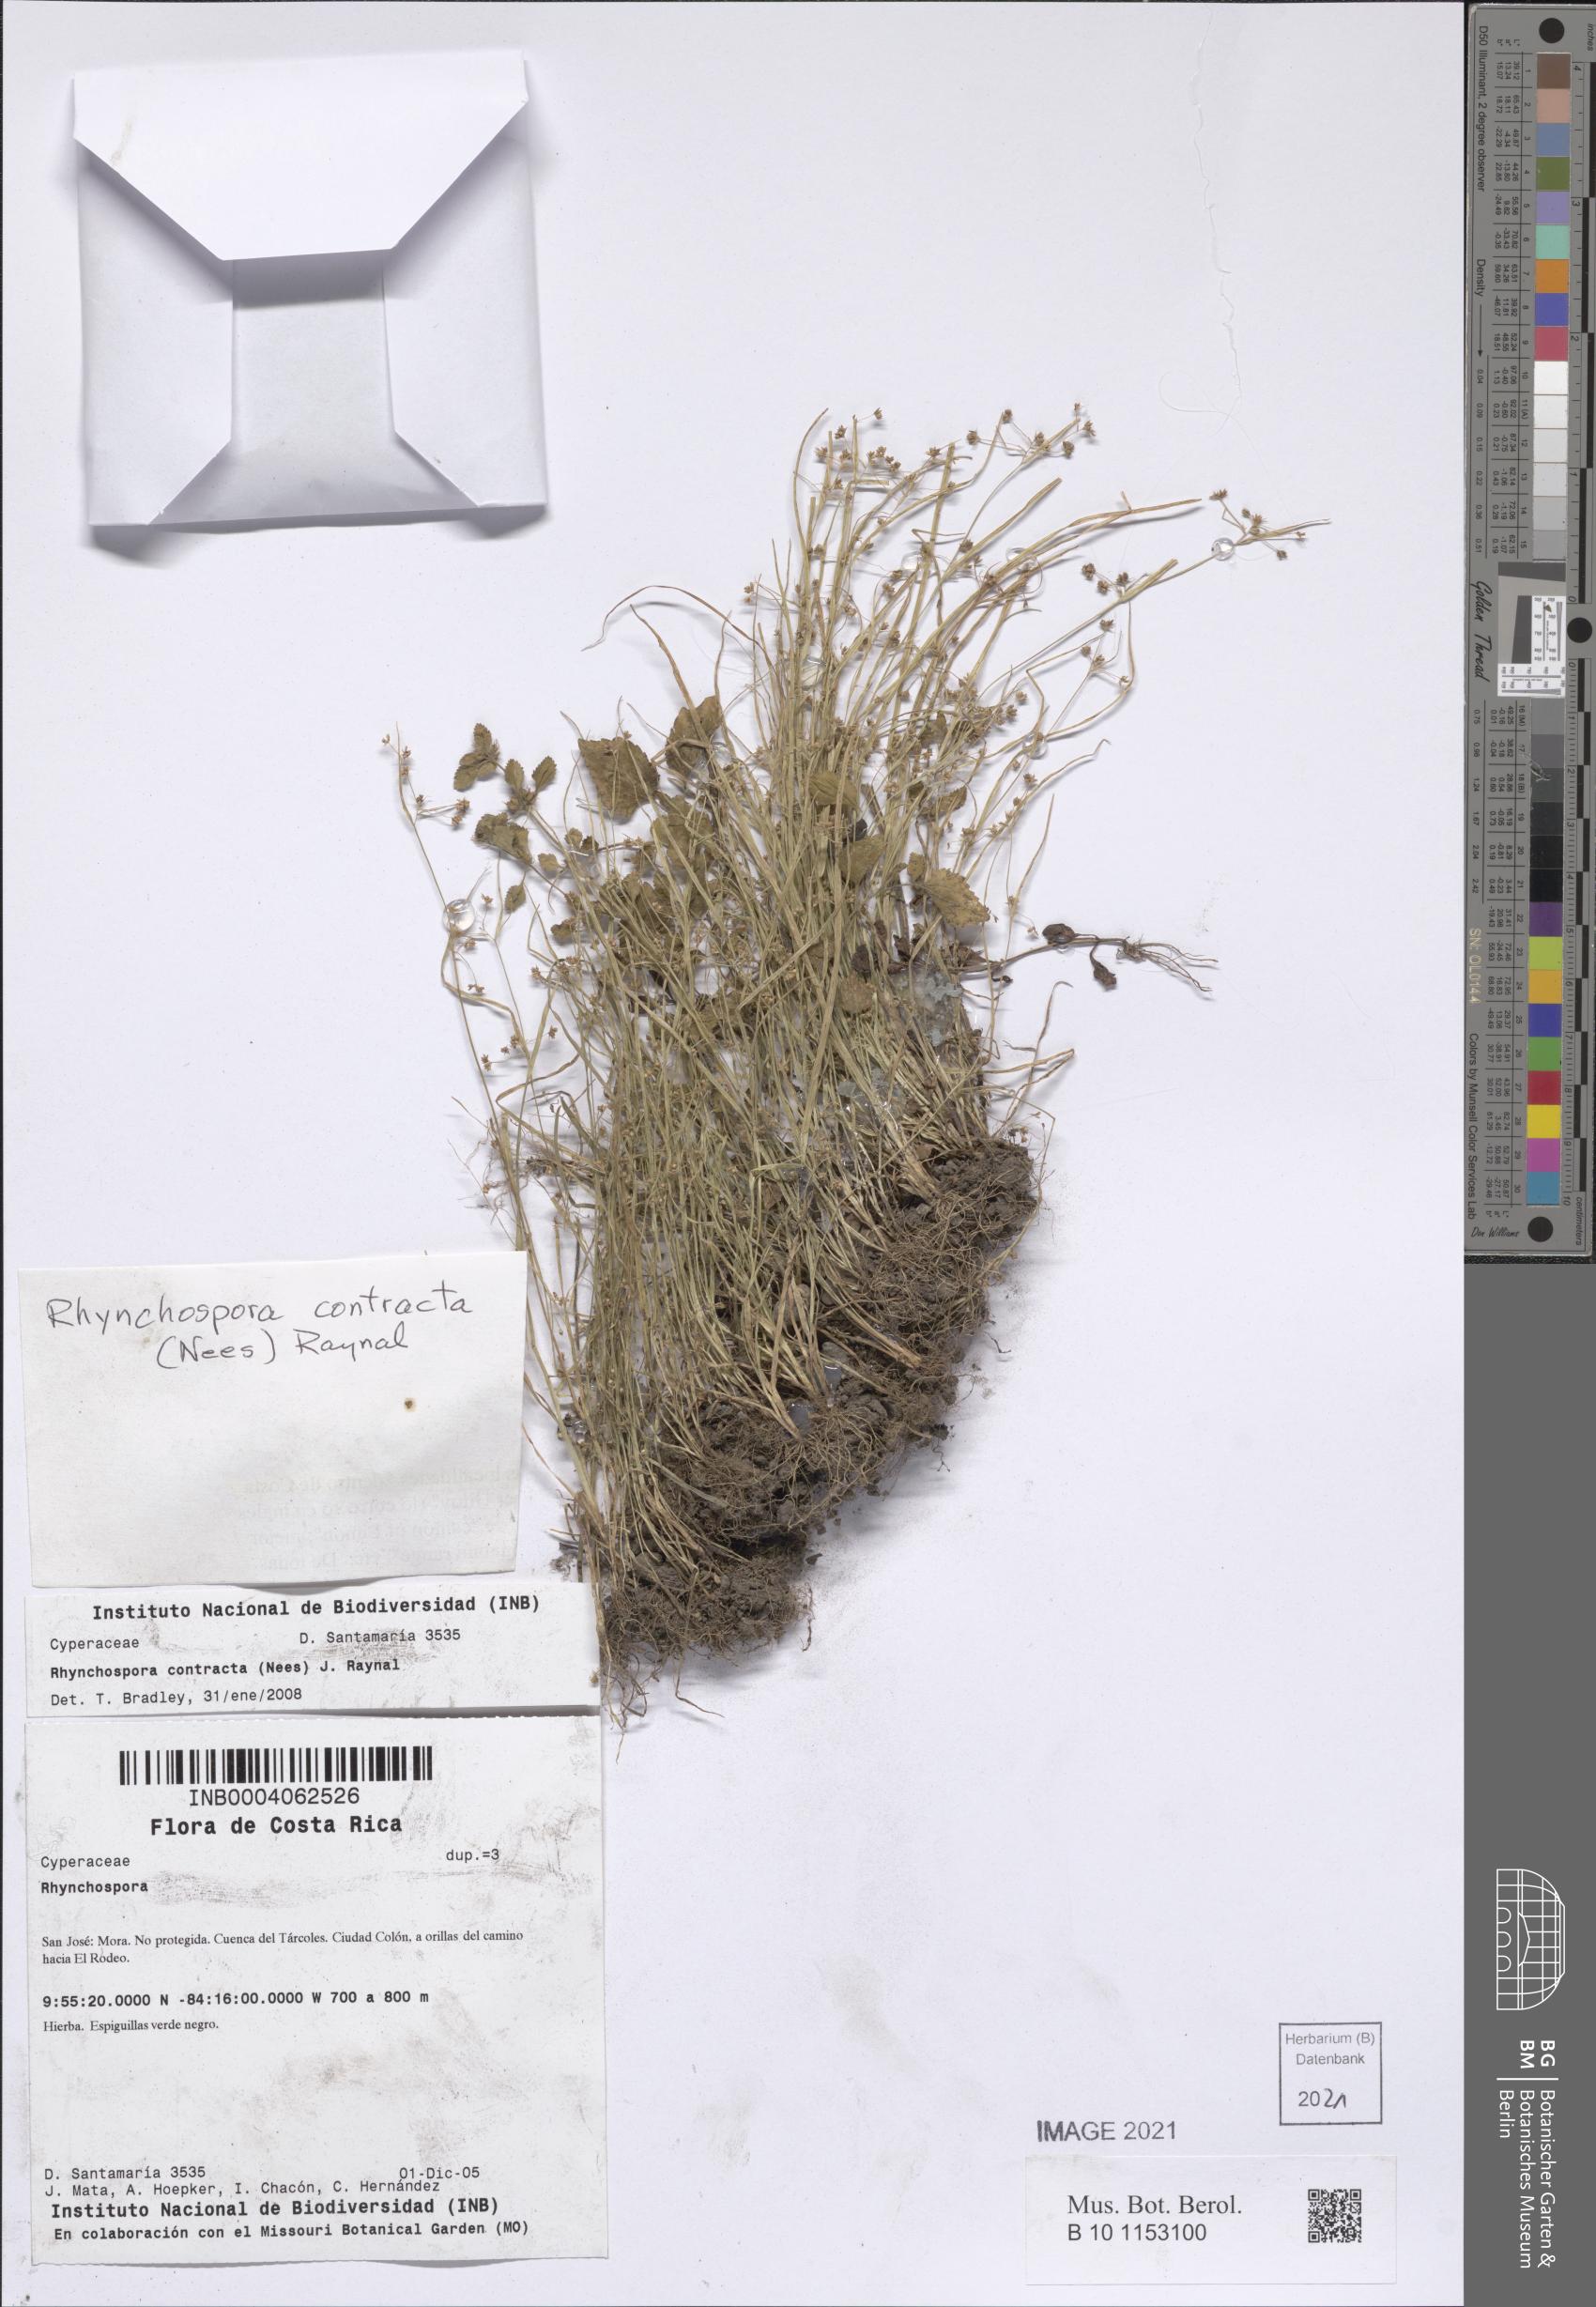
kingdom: Plantae
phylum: Tracheophyta
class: Liliopsida
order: Poales
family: Cyperaceae
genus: Rhynchospora
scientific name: Rhynchospora contracta
